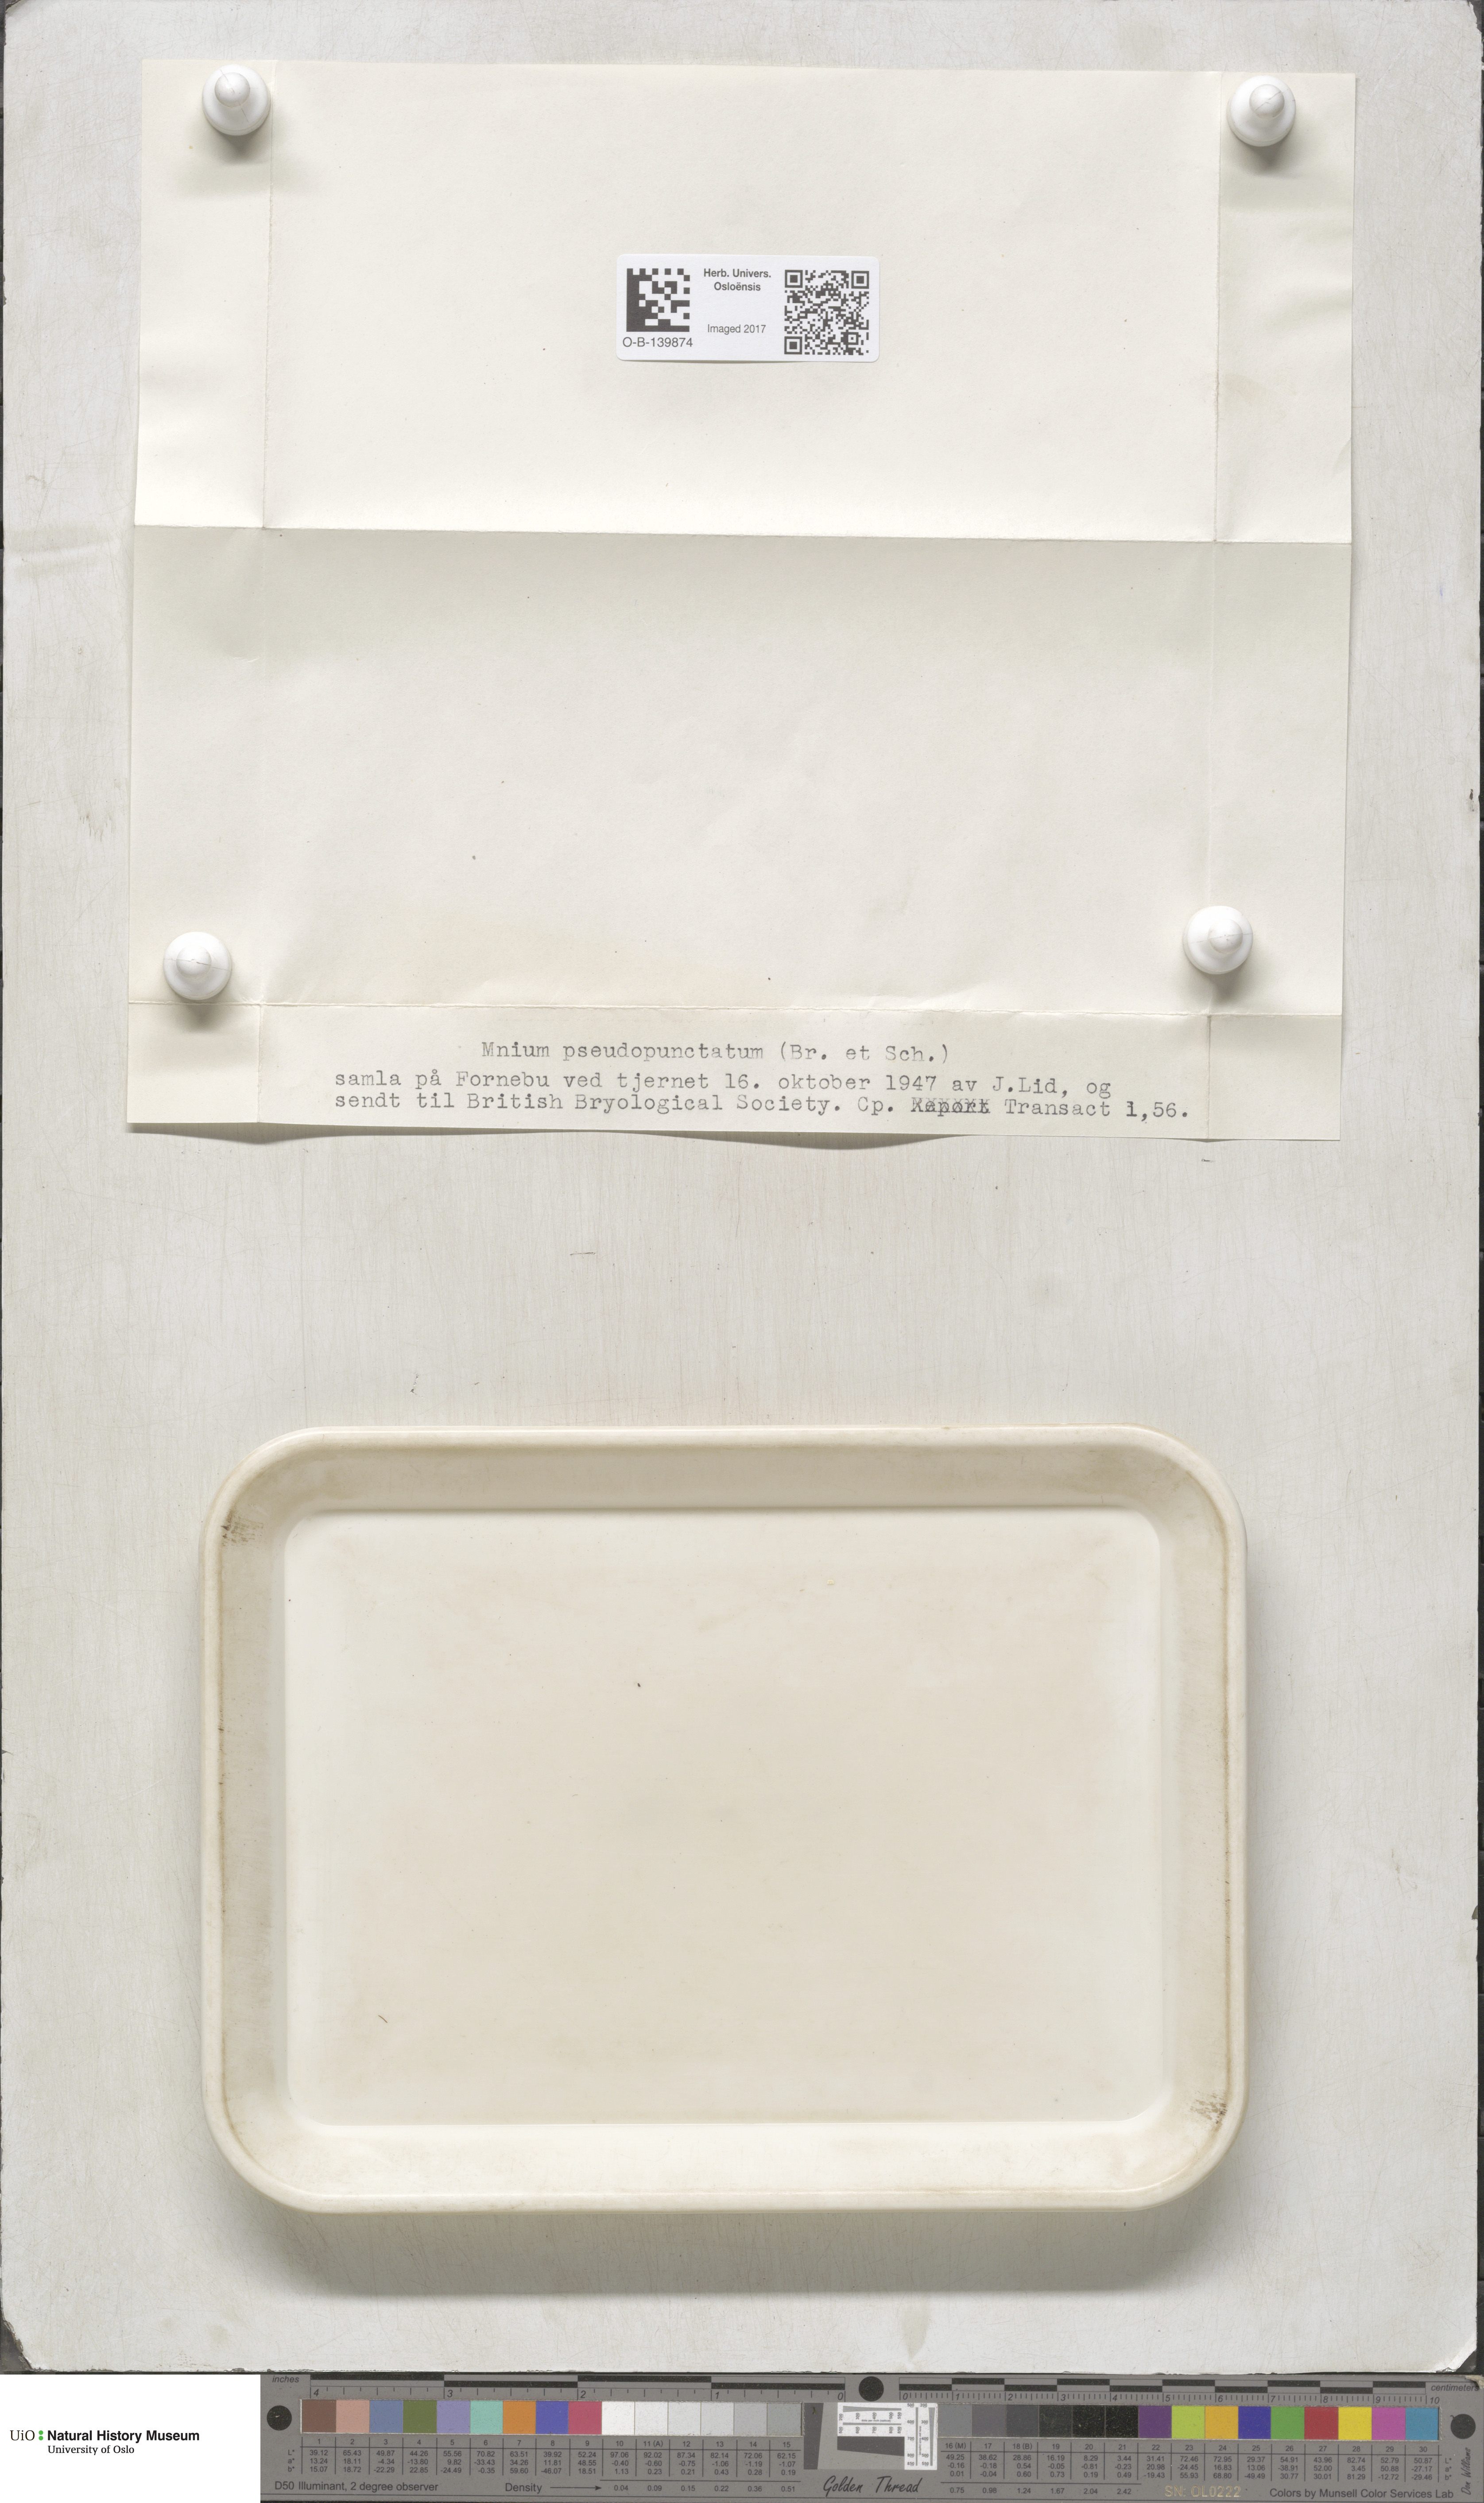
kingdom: Plantae
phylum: Bryophyta
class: Bryopsida
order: Bryales
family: Mniaceae
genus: Rhizomnium
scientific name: Rhizomnium pseudopunctatum
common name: Felted leafy moss
